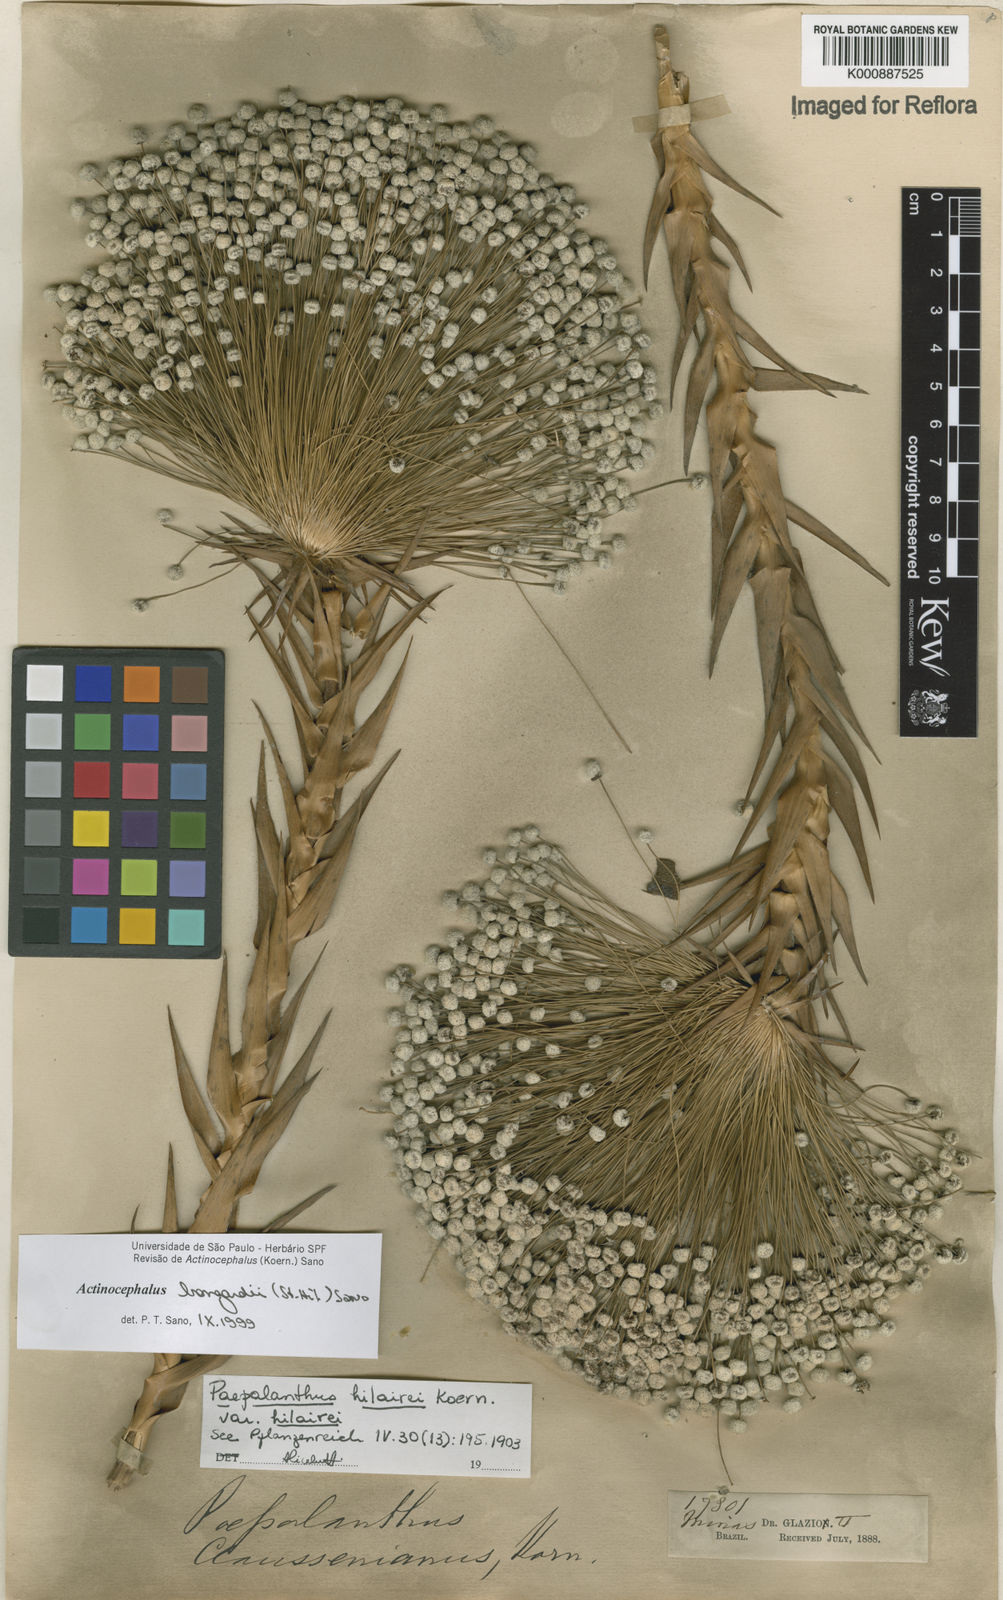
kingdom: Plantae
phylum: Tracheophyta
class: Liliopsida
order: Poales
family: Eriocaulaceae
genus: Paepalanthus
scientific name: Paepalanthus hilairei
